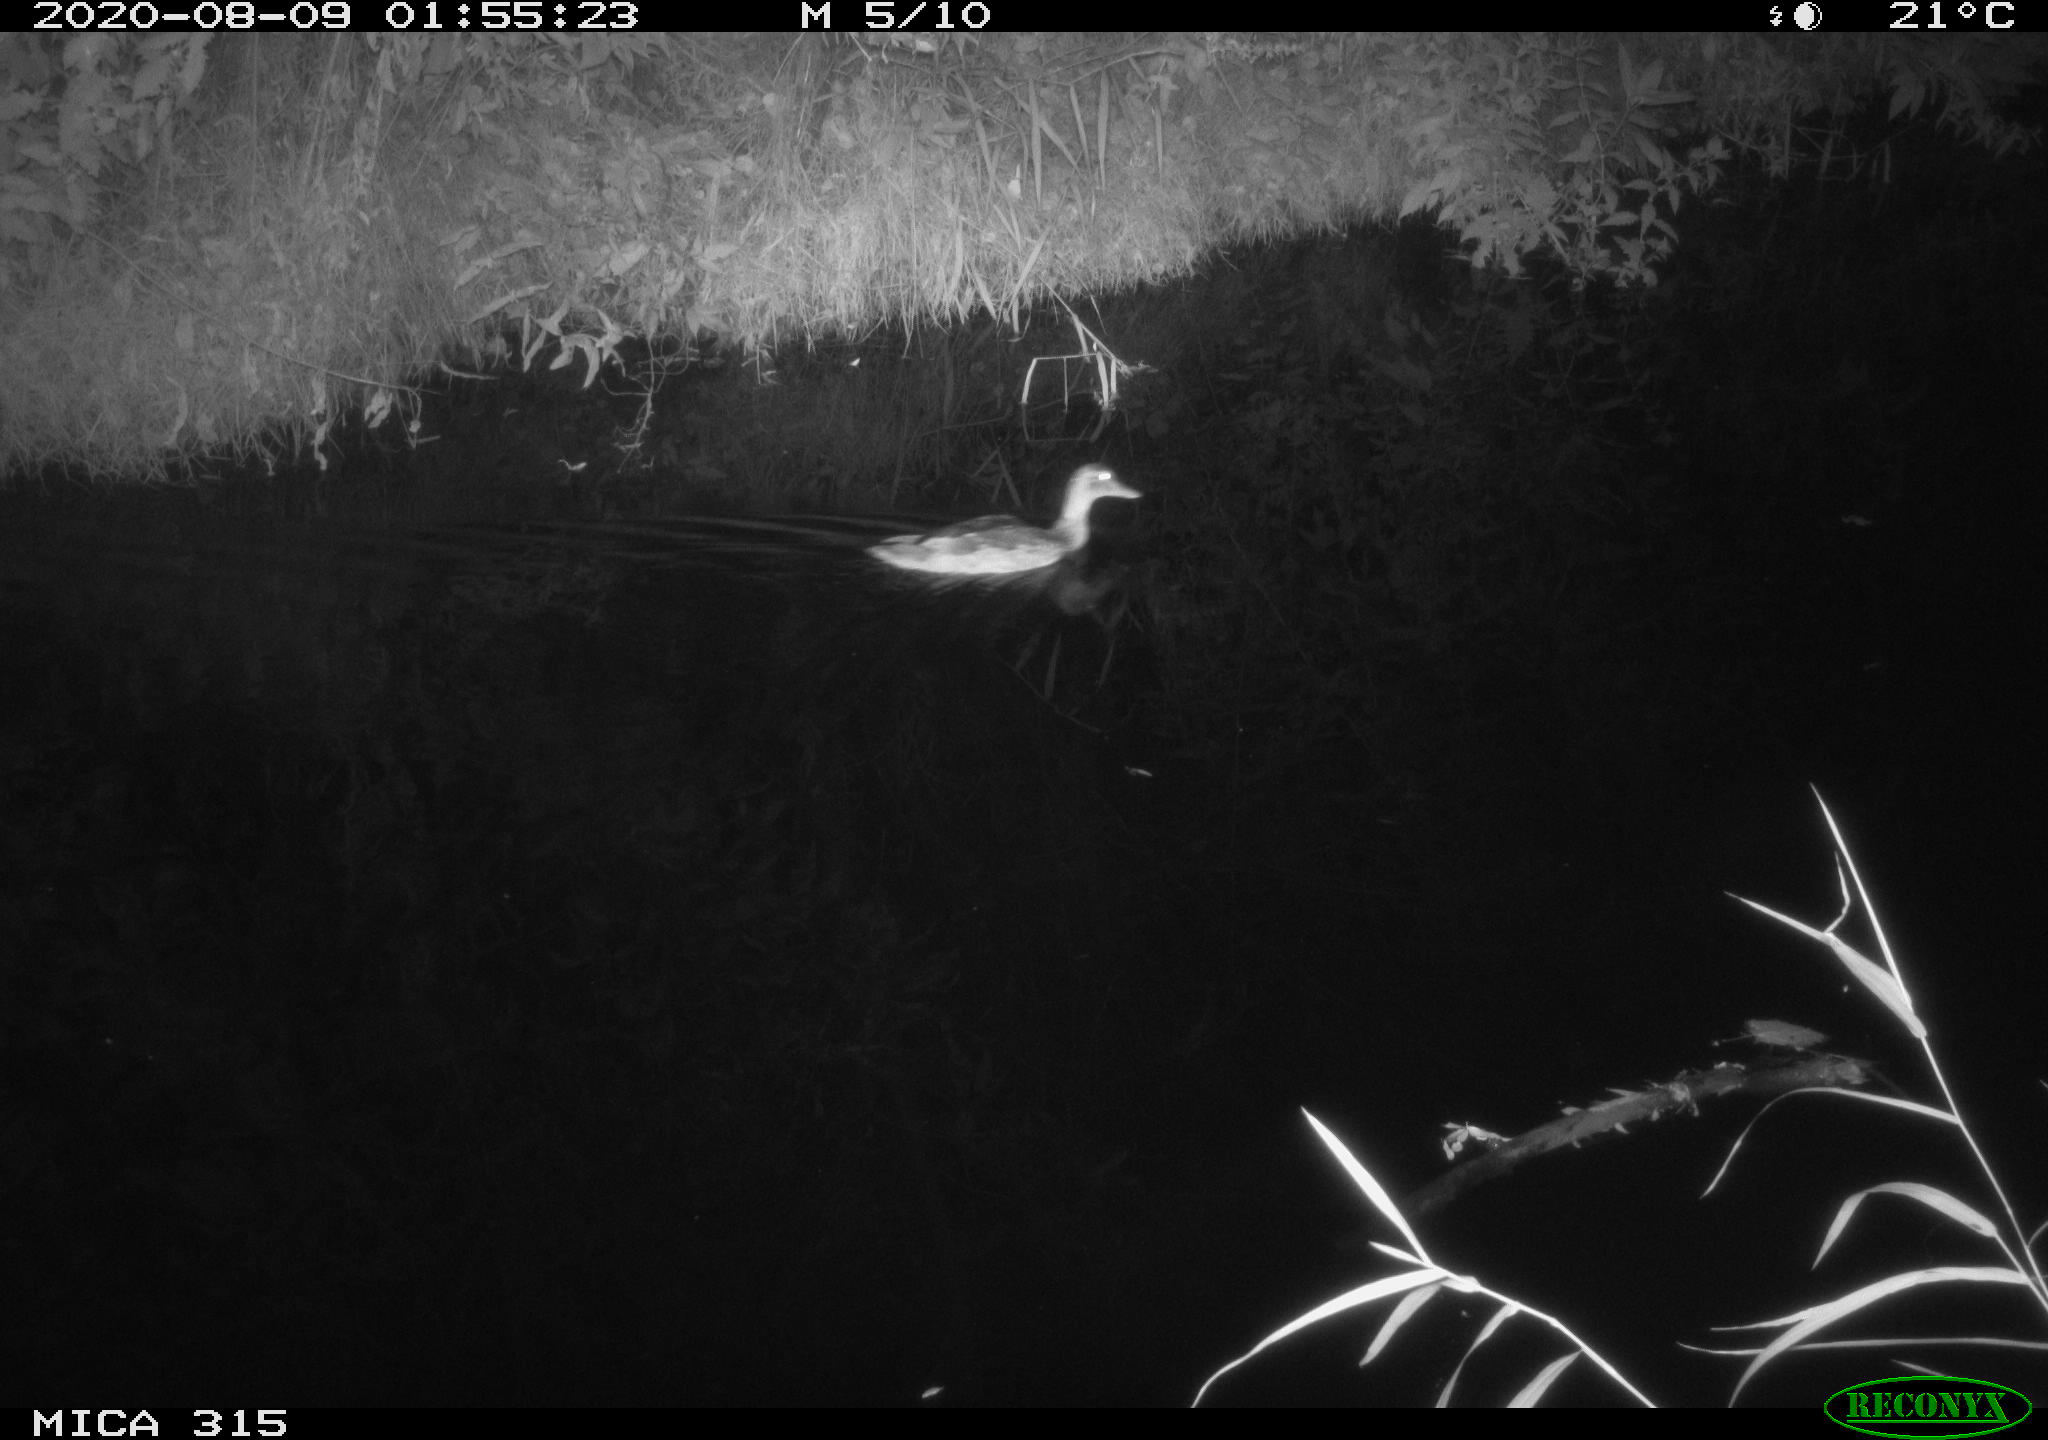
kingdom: Animalia
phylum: Chordata
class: Aves
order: Anseriformes
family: Anatidae
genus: Anas
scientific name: Anas platyrhynchos
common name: Mallard
